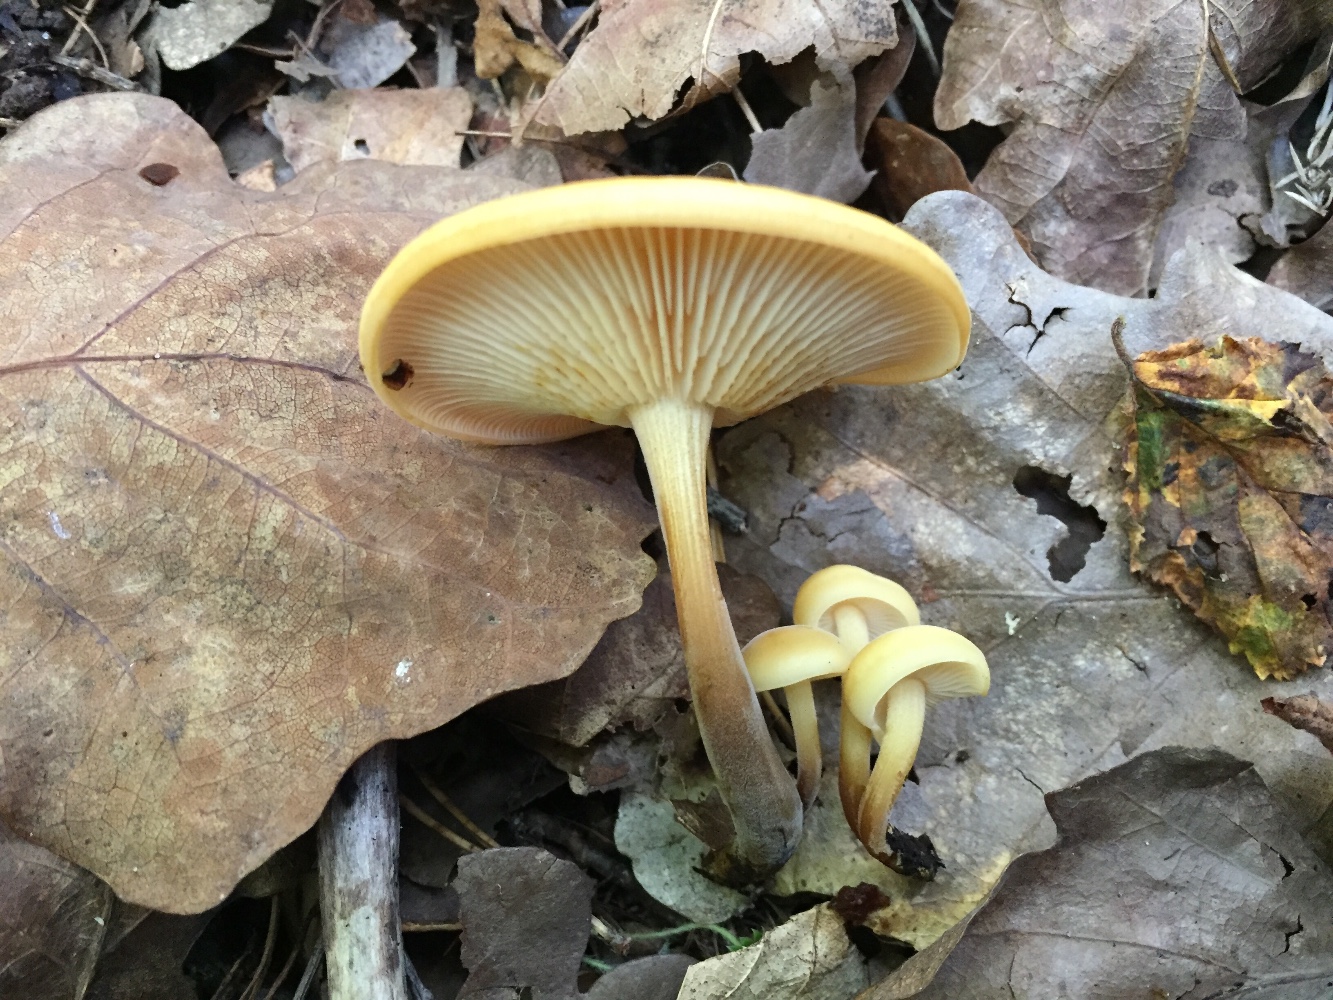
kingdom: Fungi
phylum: Basidiomycota
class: Agaricomycetes
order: Agaricales
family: Physalacriaceae
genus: Flammulina
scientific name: Flammulina
